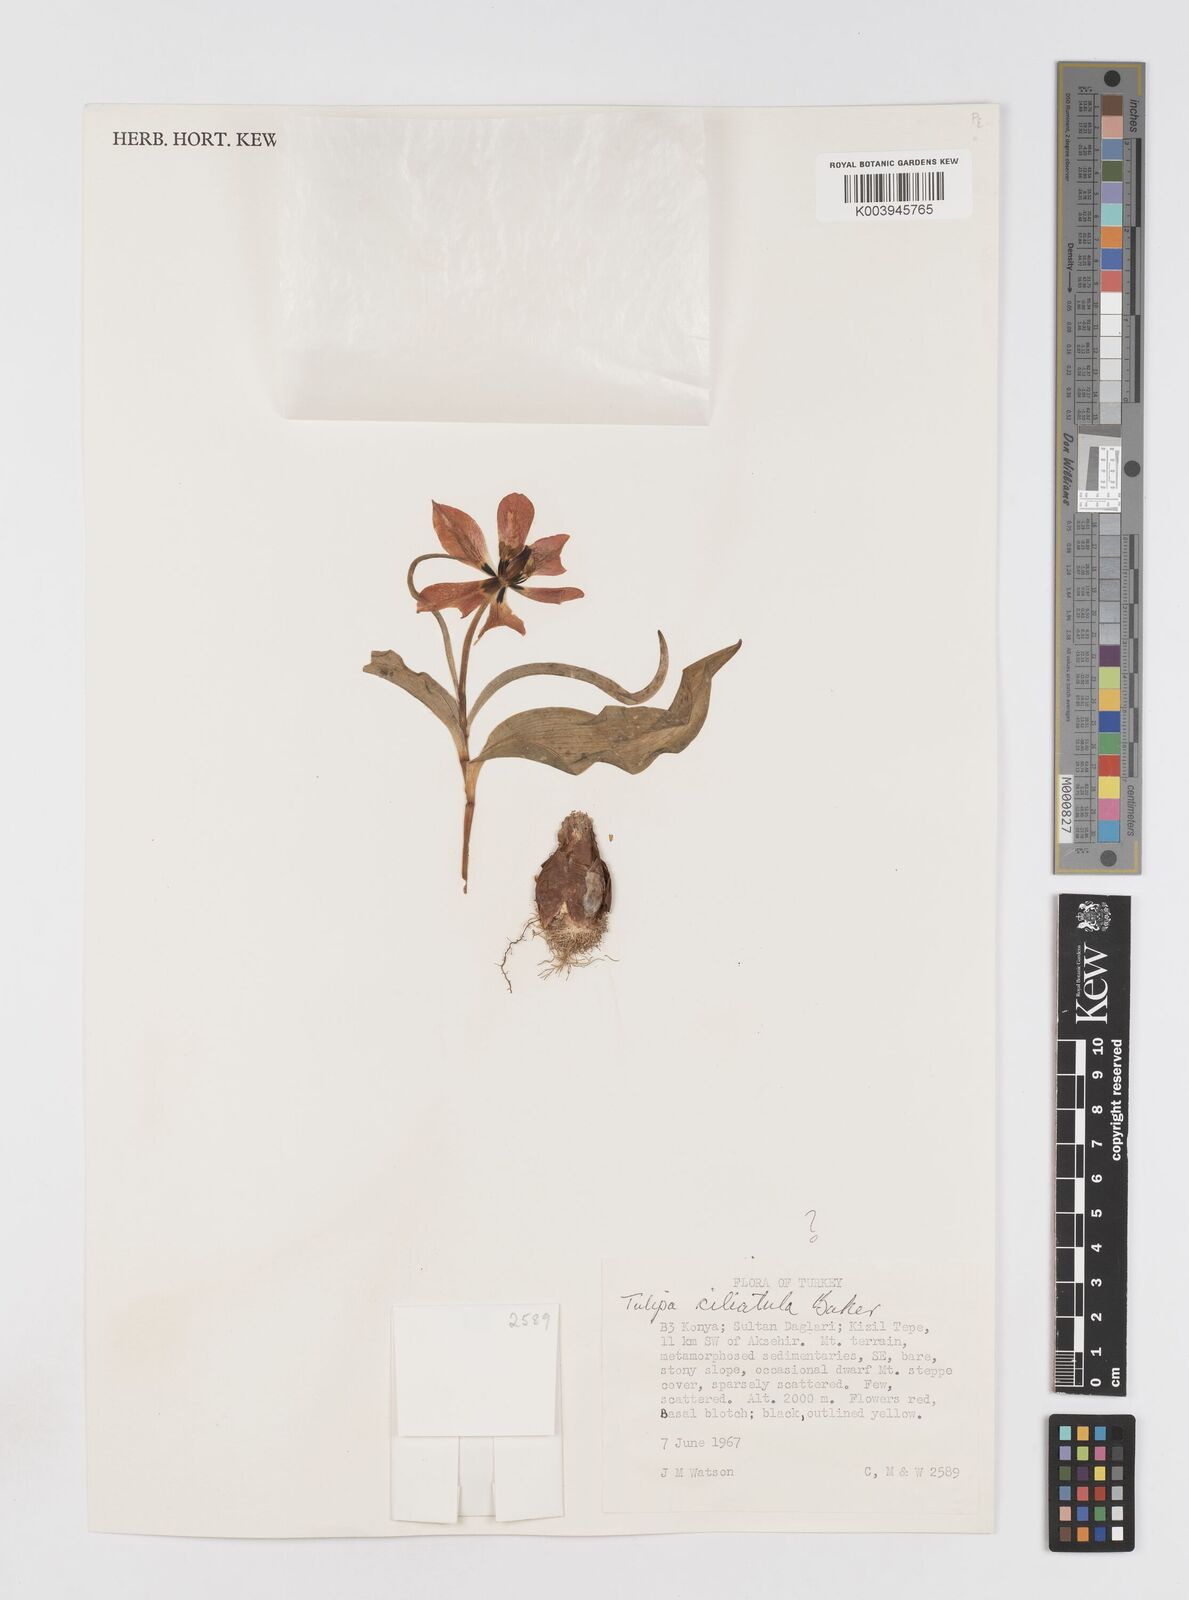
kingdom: Plantae
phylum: Tracheophyta
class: Liliopsida
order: Liliales
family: Liliaceae
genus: Tulipa
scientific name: Tulipa foliosa
